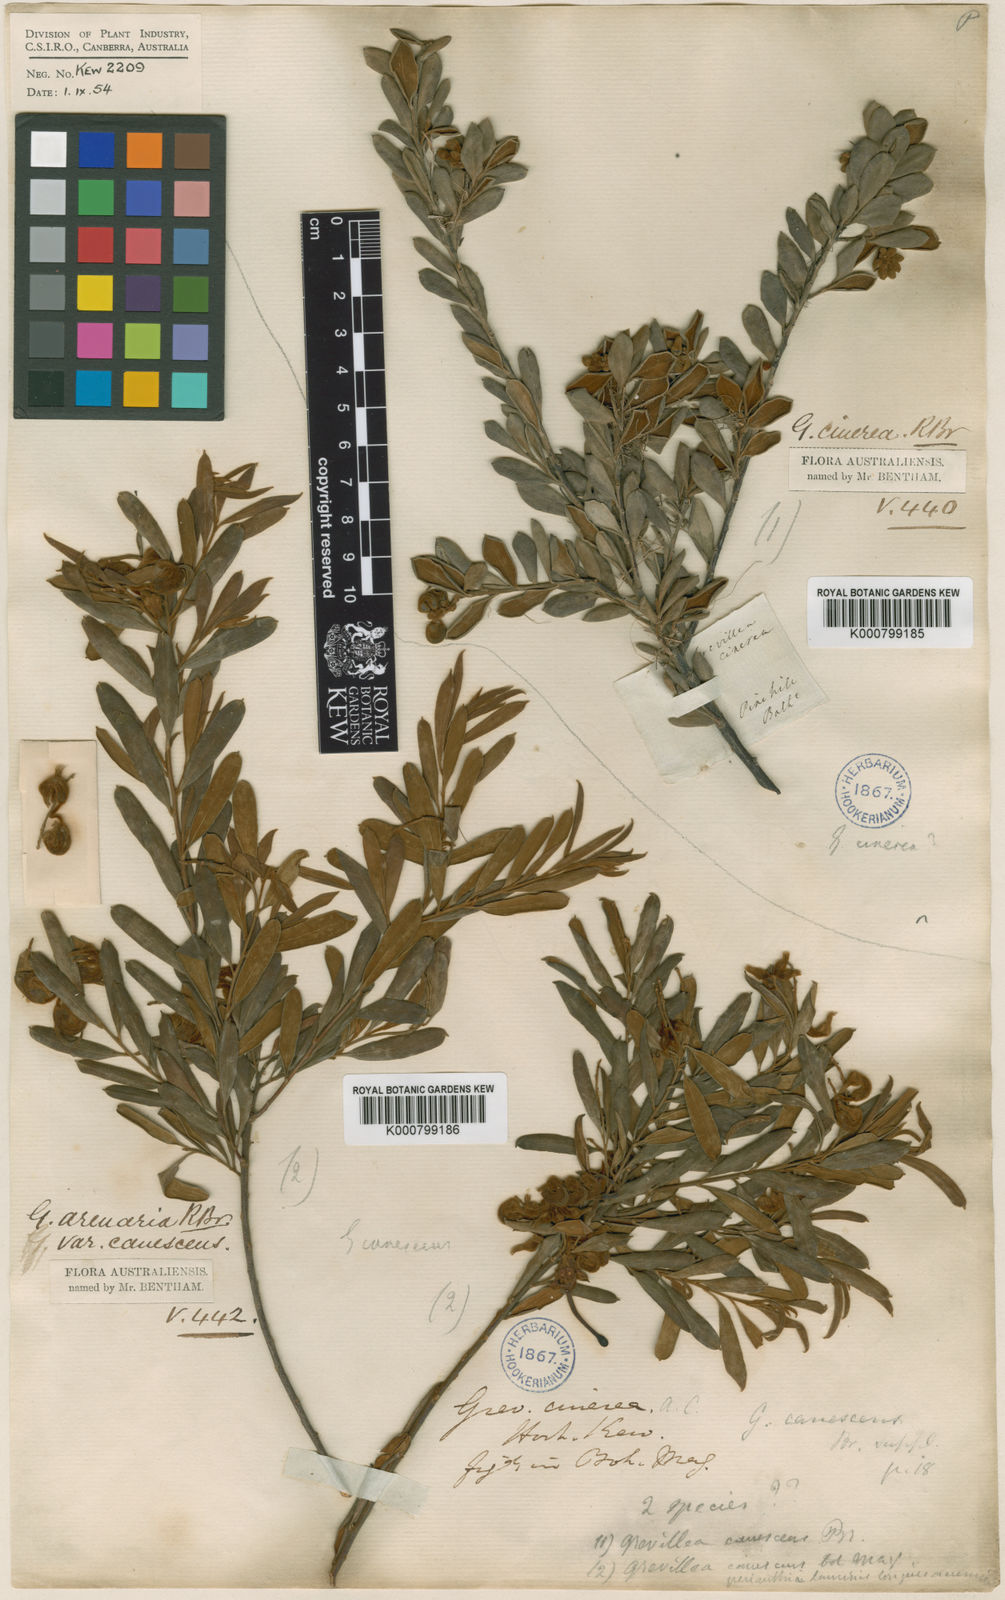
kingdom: Plantae
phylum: Tracheophyta
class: Magnoliopsida
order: Proteales
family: Proteaceae
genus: Grevillea
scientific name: Grevillea arenaria
